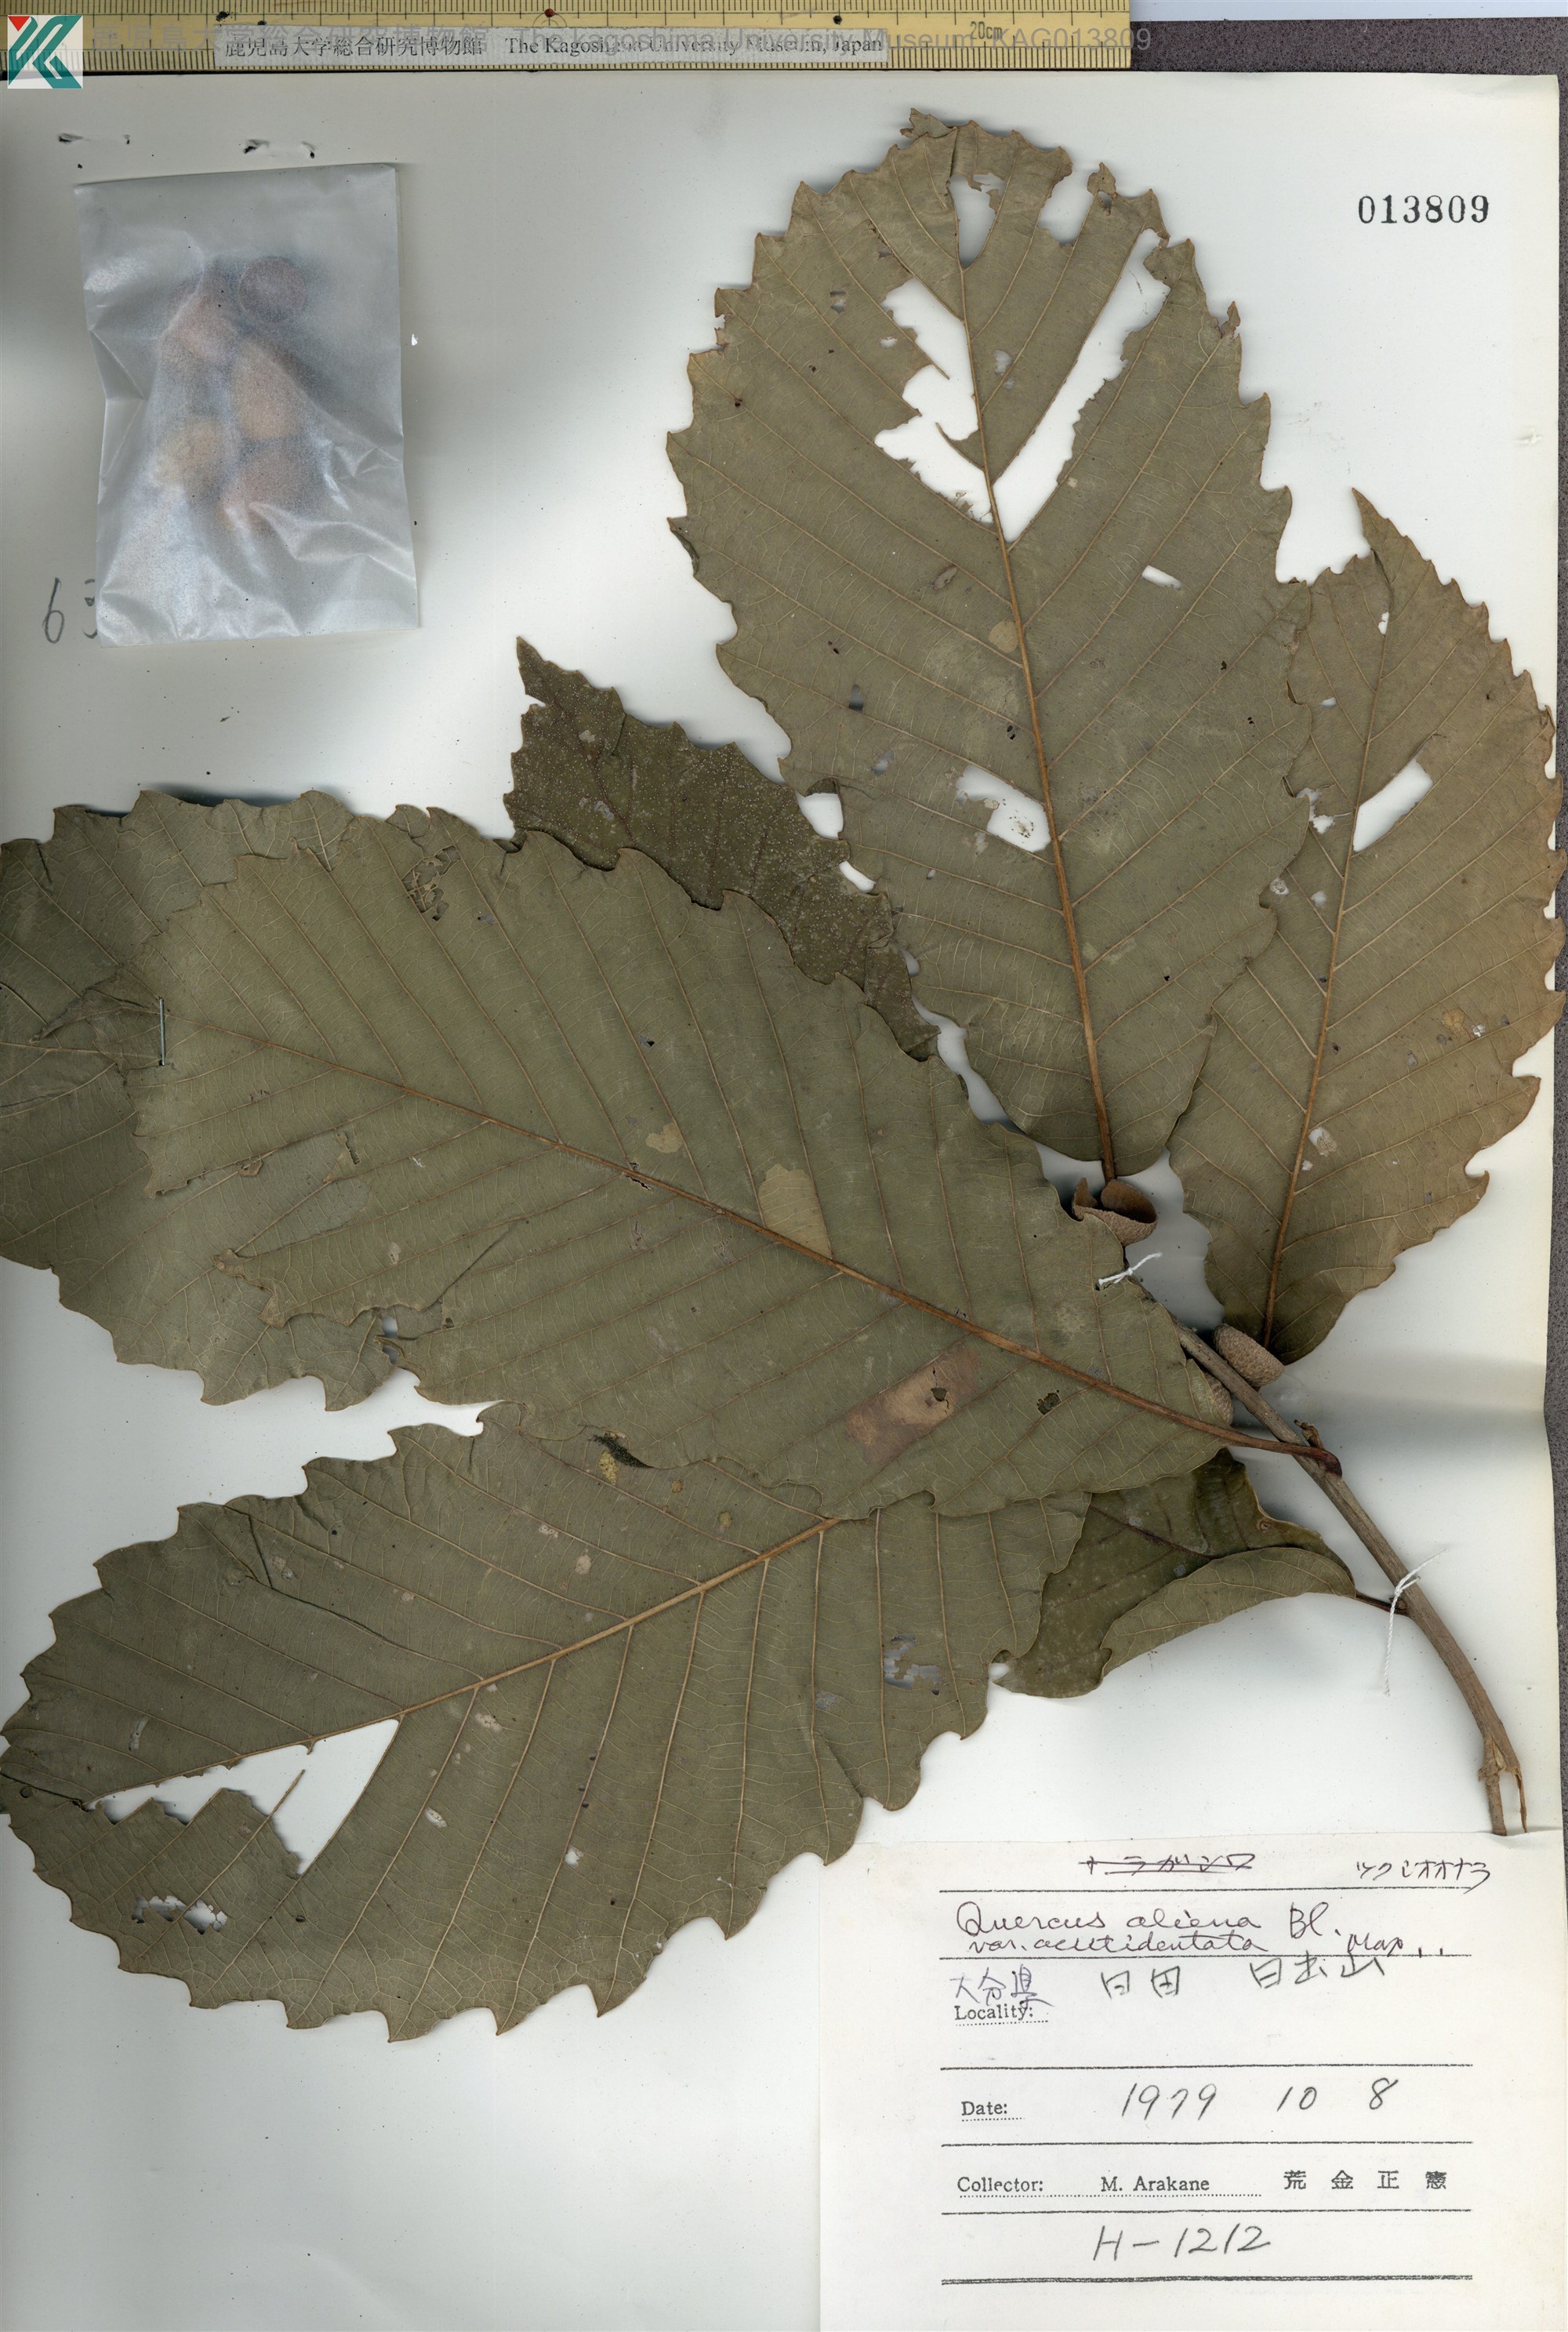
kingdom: Plantae
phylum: Tracheophyta
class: Magnoliopsida
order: Fagales
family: Fagaceae
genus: Quercus
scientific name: Quercus aliena
